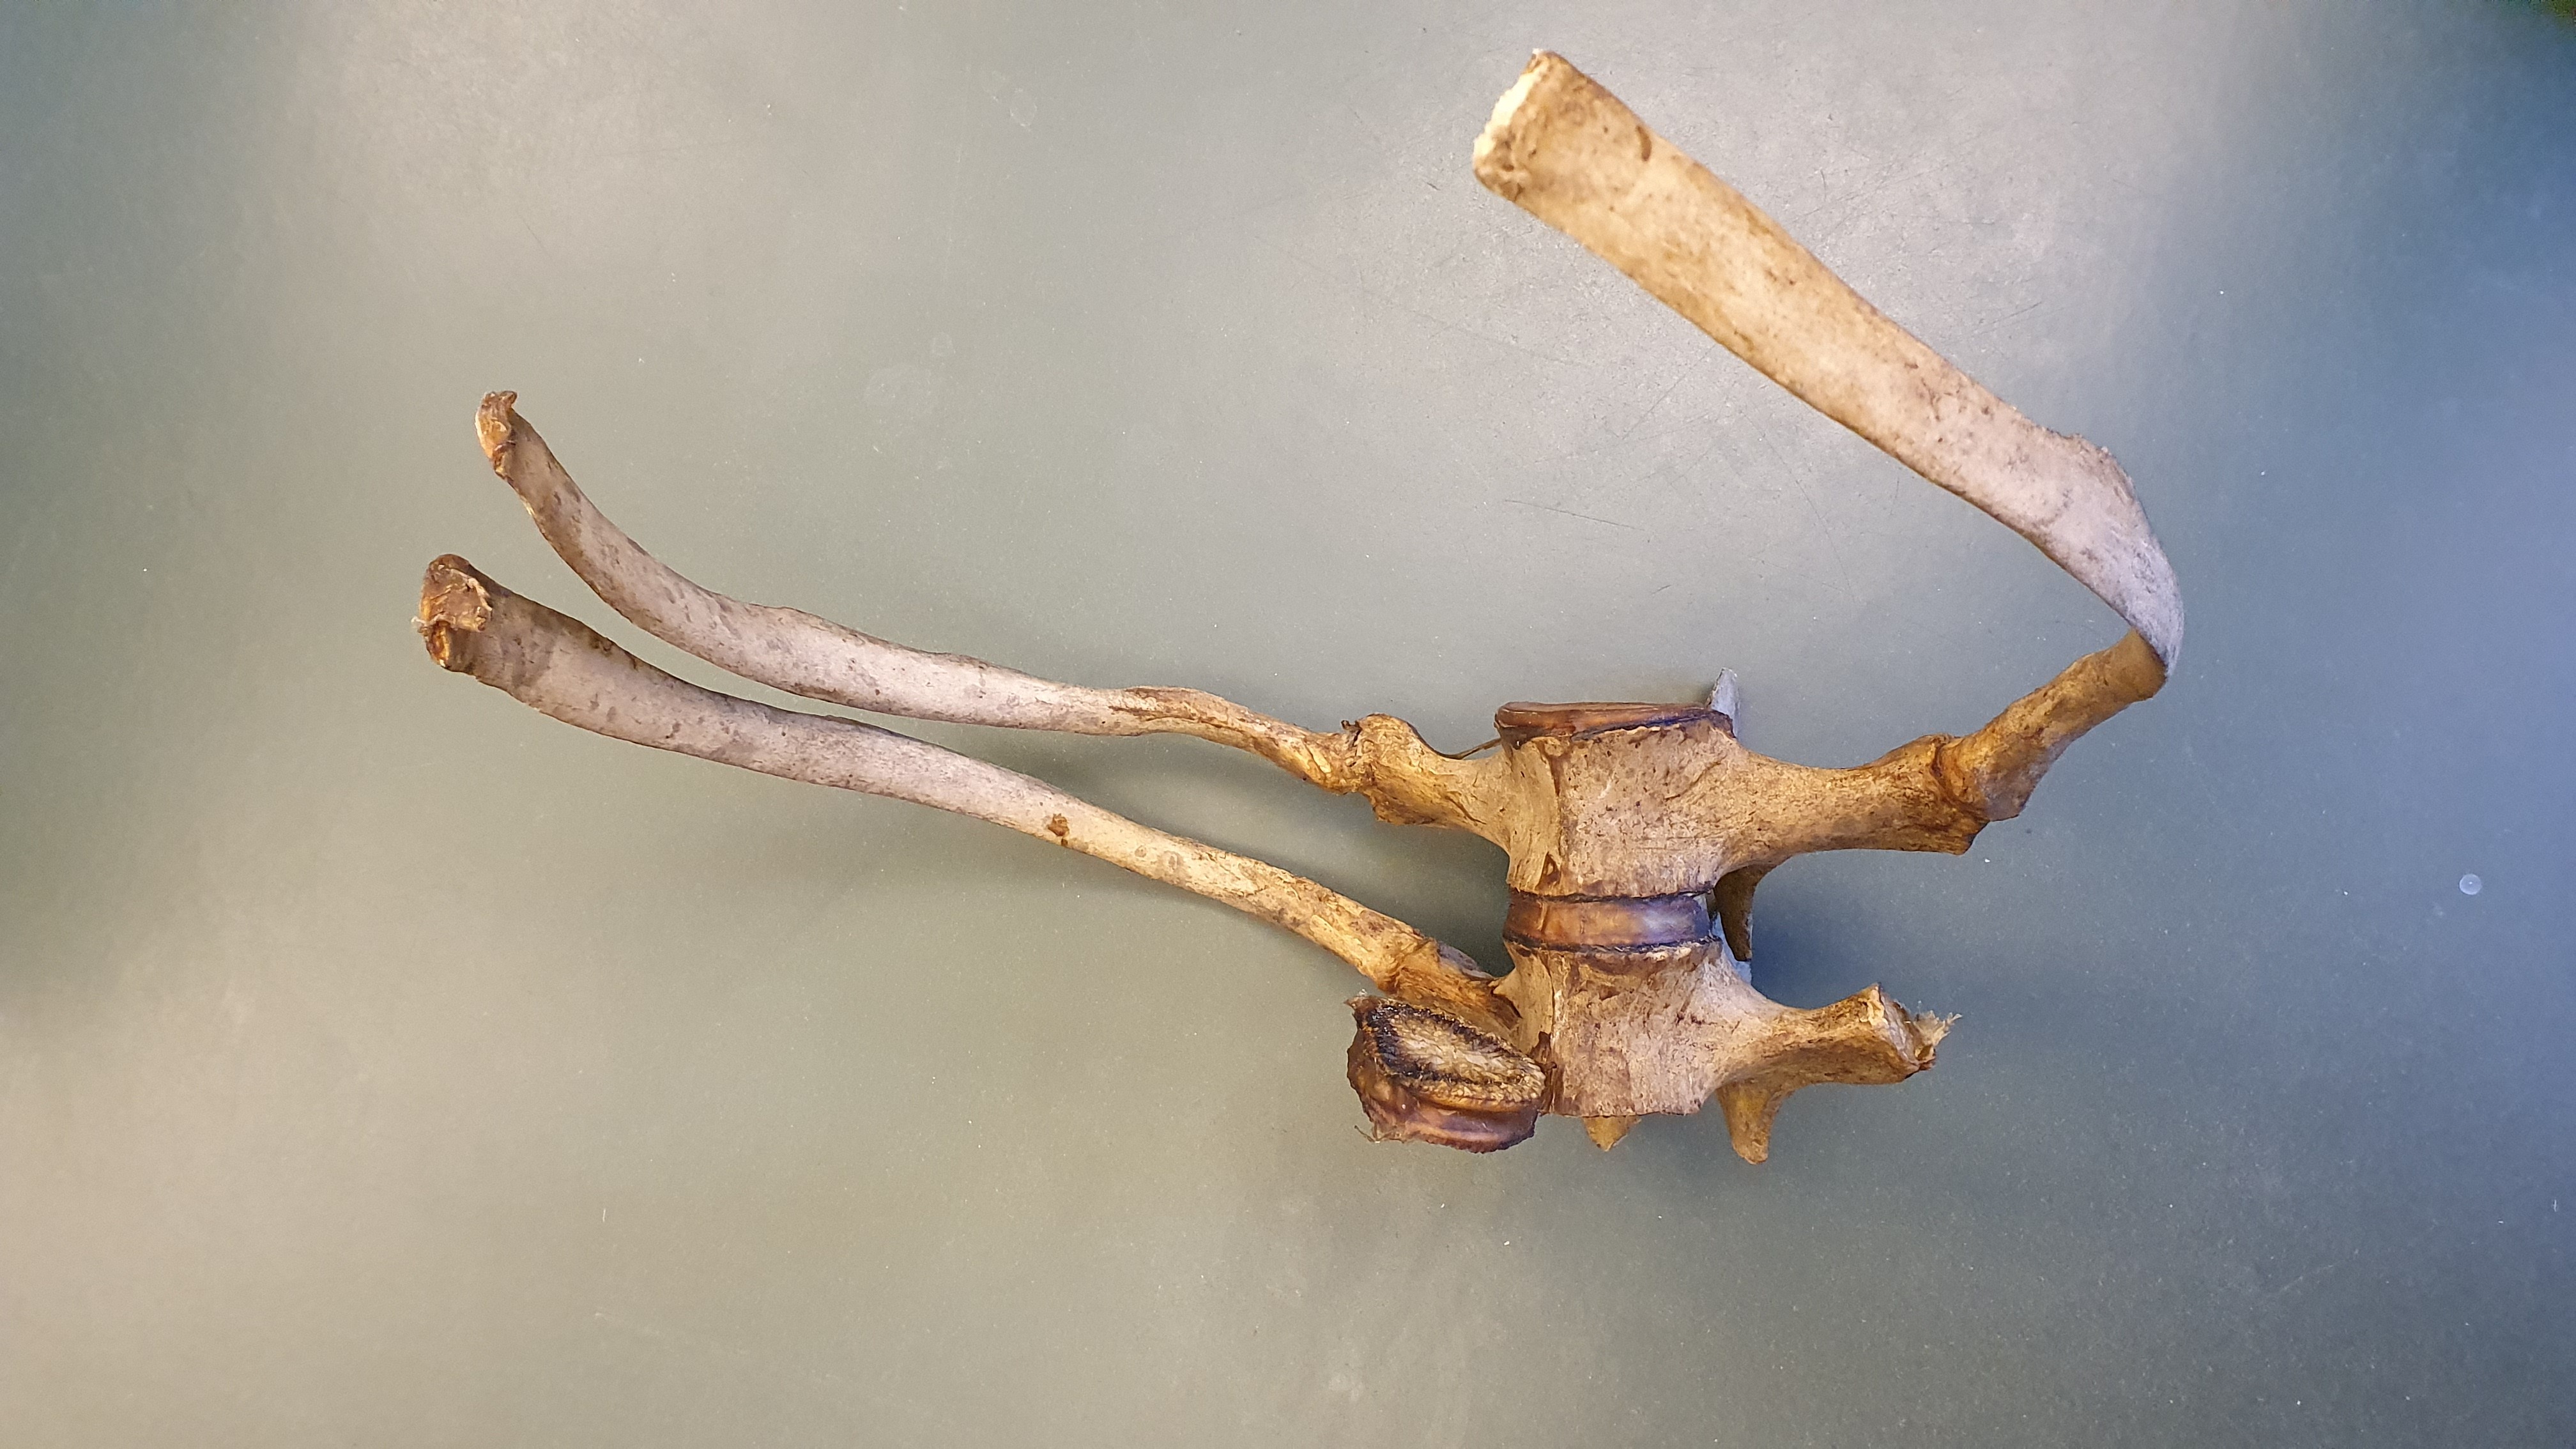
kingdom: Animalia
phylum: Chordata
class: Mammalia
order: Cetacea
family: Monodontidae
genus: Delphinapterus
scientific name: Delphinapterus leucas
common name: Beluga
